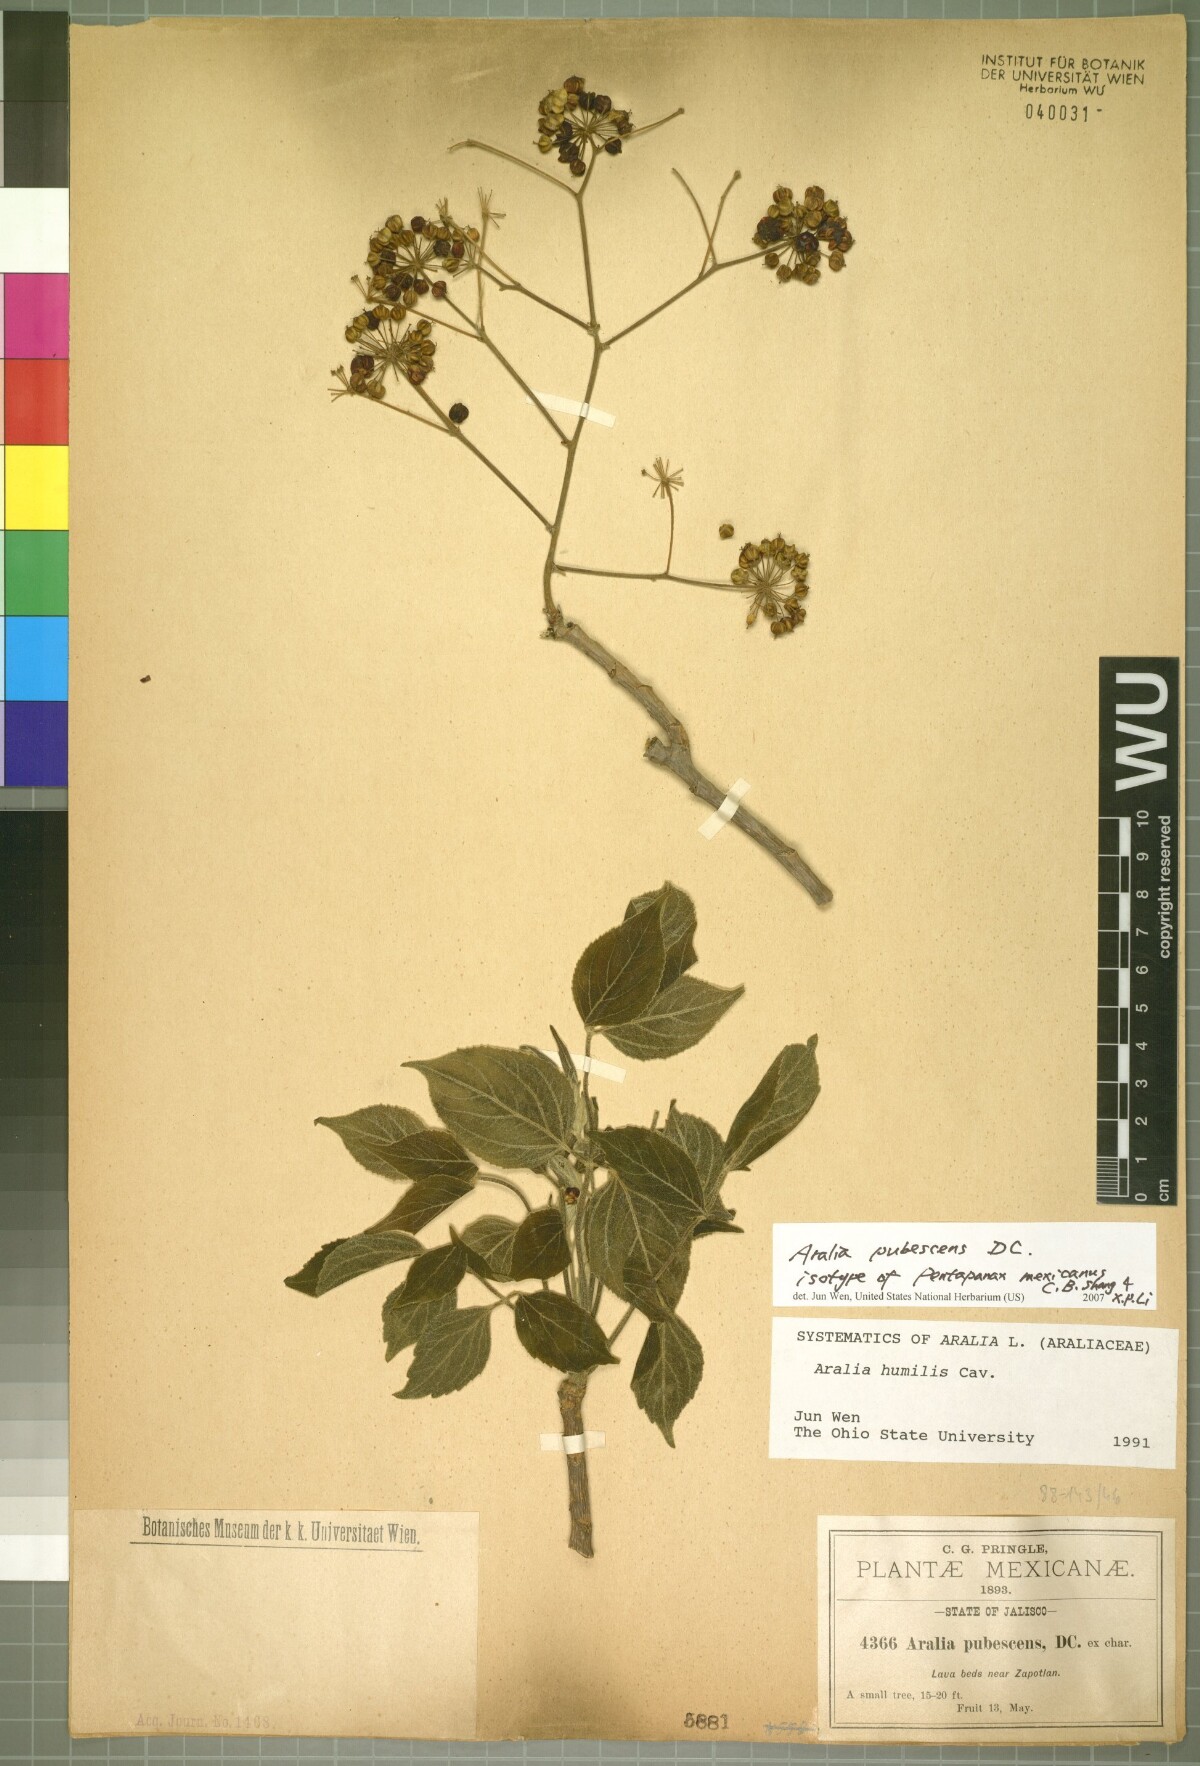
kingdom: Plantae
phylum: Tracheophyta
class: Magnoliopsida
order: Apiales
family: Araliaceae
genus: Aralia
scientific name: Aralia mexicana
